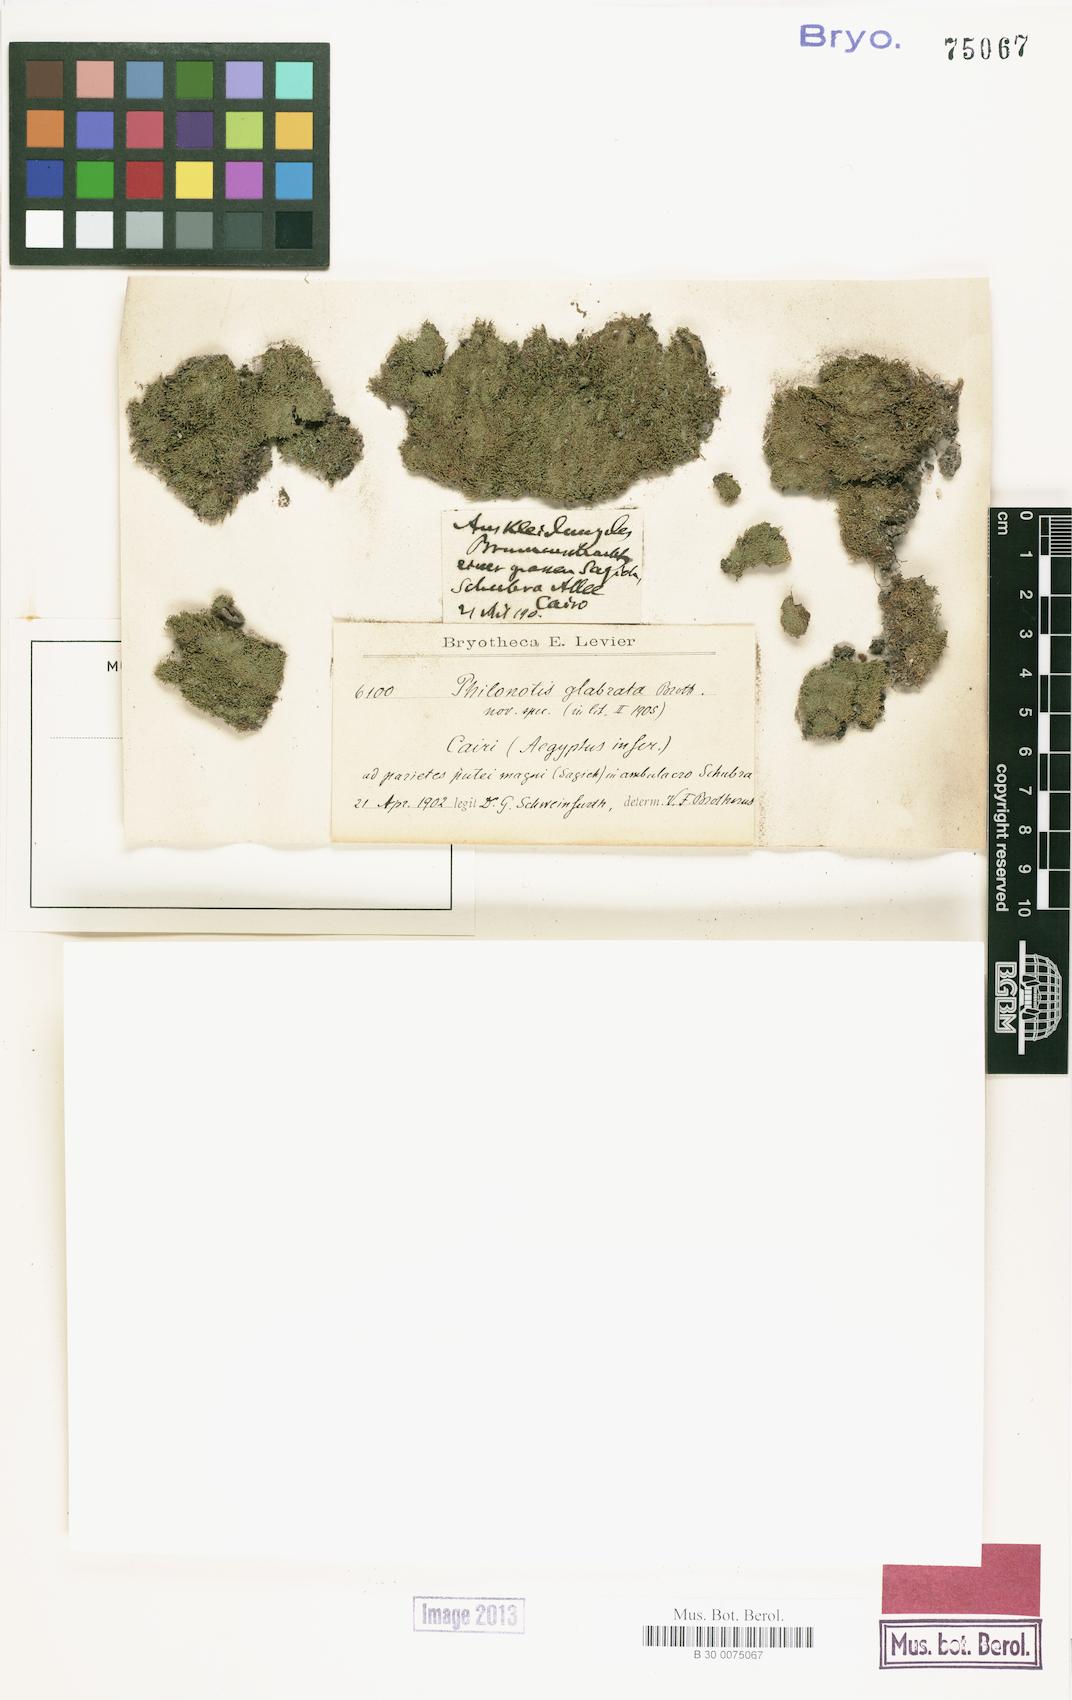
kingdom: Plantae
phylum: Bryophyta
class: Bryopsida
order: Bartramiales
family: Bartramiaceae
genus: Philonotis
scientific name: Philonotis krausei
